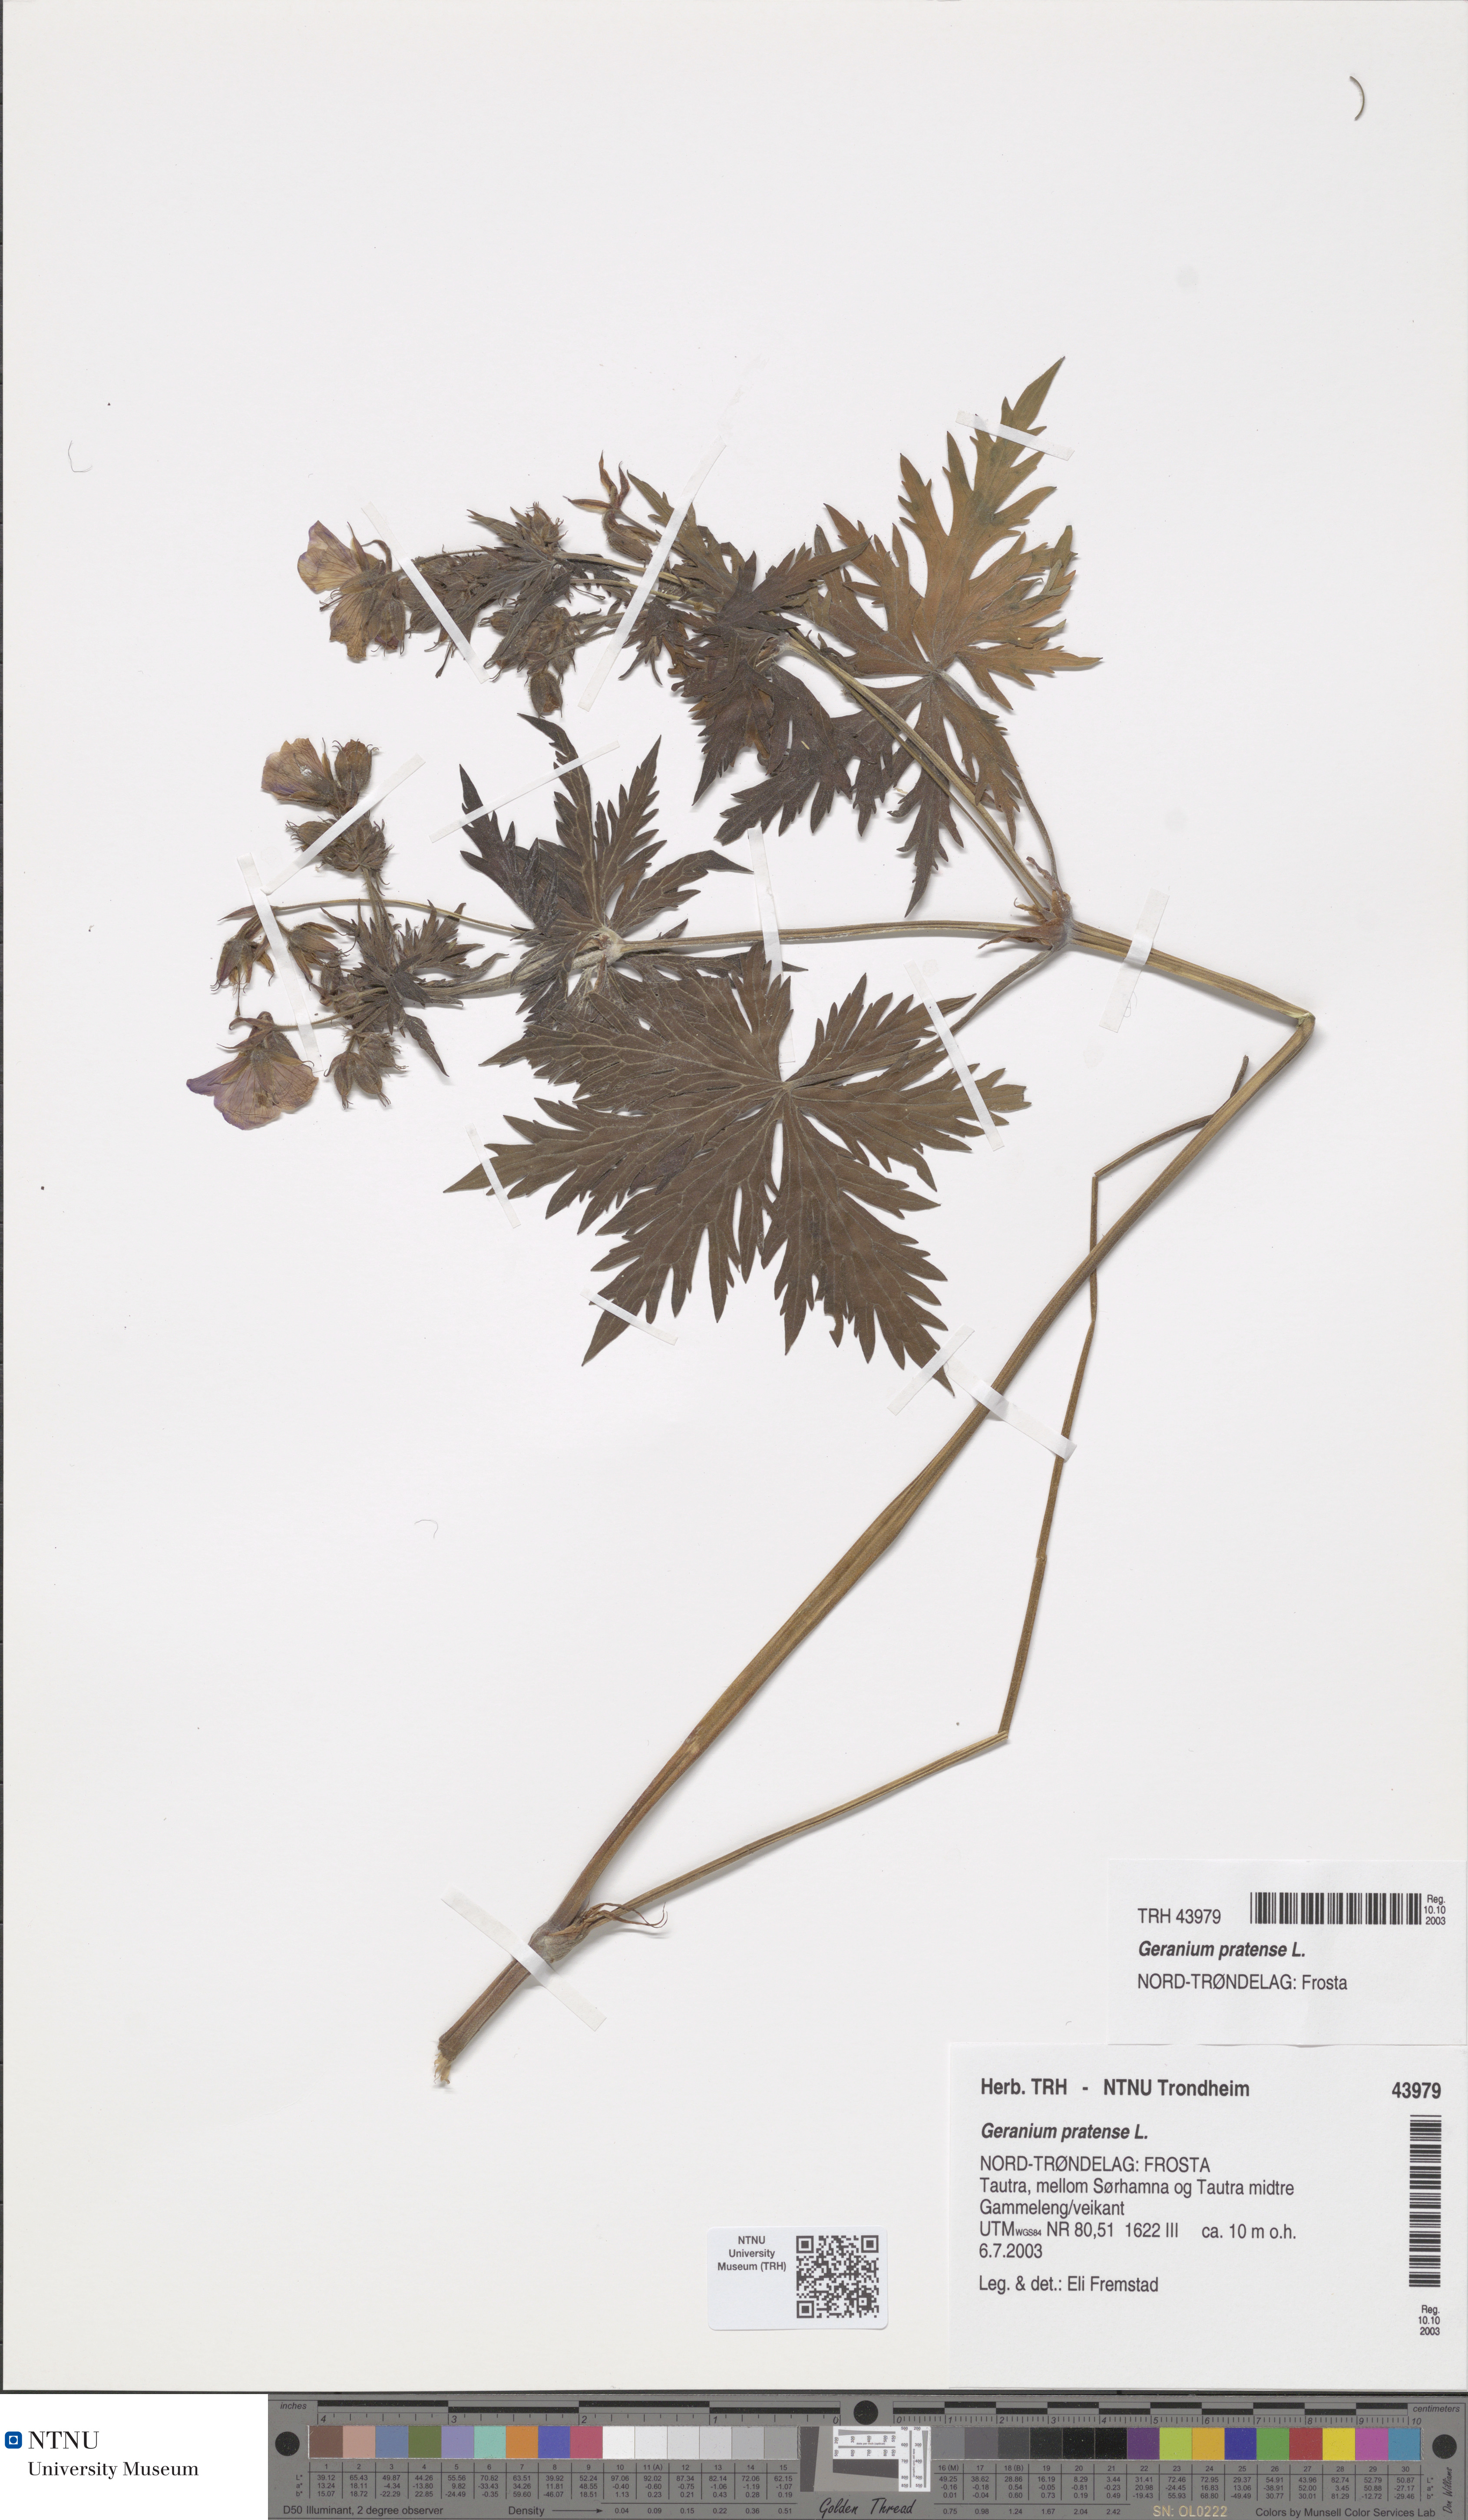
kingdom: Plantae
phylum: Tracheophyta
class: Magnoliopsida
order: Geraniales
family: Geraniaceae
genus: Geranium
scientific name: Geranium pratense
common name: Meadow crane's-bill
